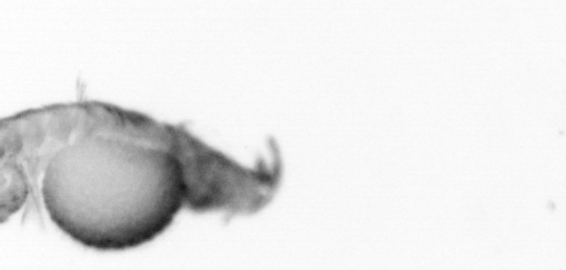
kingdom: Animalia
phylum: Annelida
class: Polychaeta
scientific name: Polychaeta
